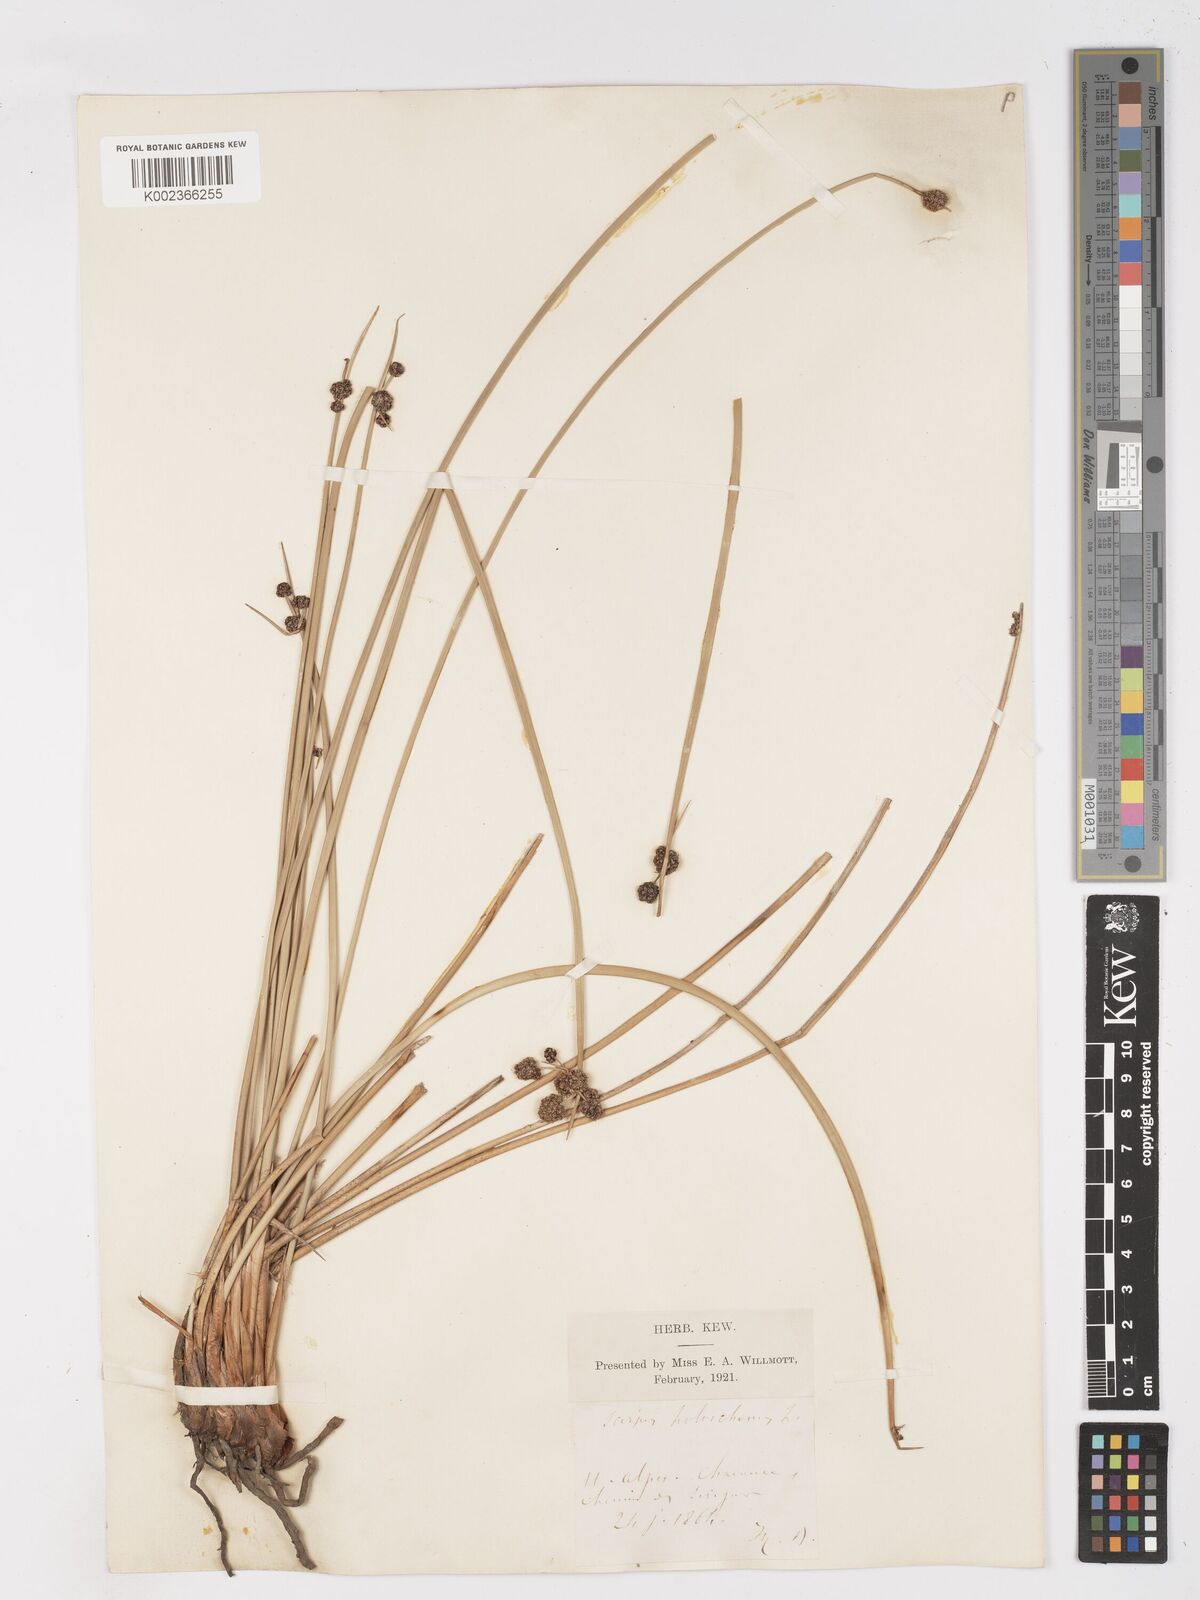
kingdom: Plantae
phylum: Tracheophyta
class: Liliopsida
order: Poales
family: Cyperaceae
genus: Scirpoides
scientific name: Scirpoides holoschoenus
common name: Round-headed club-rush
